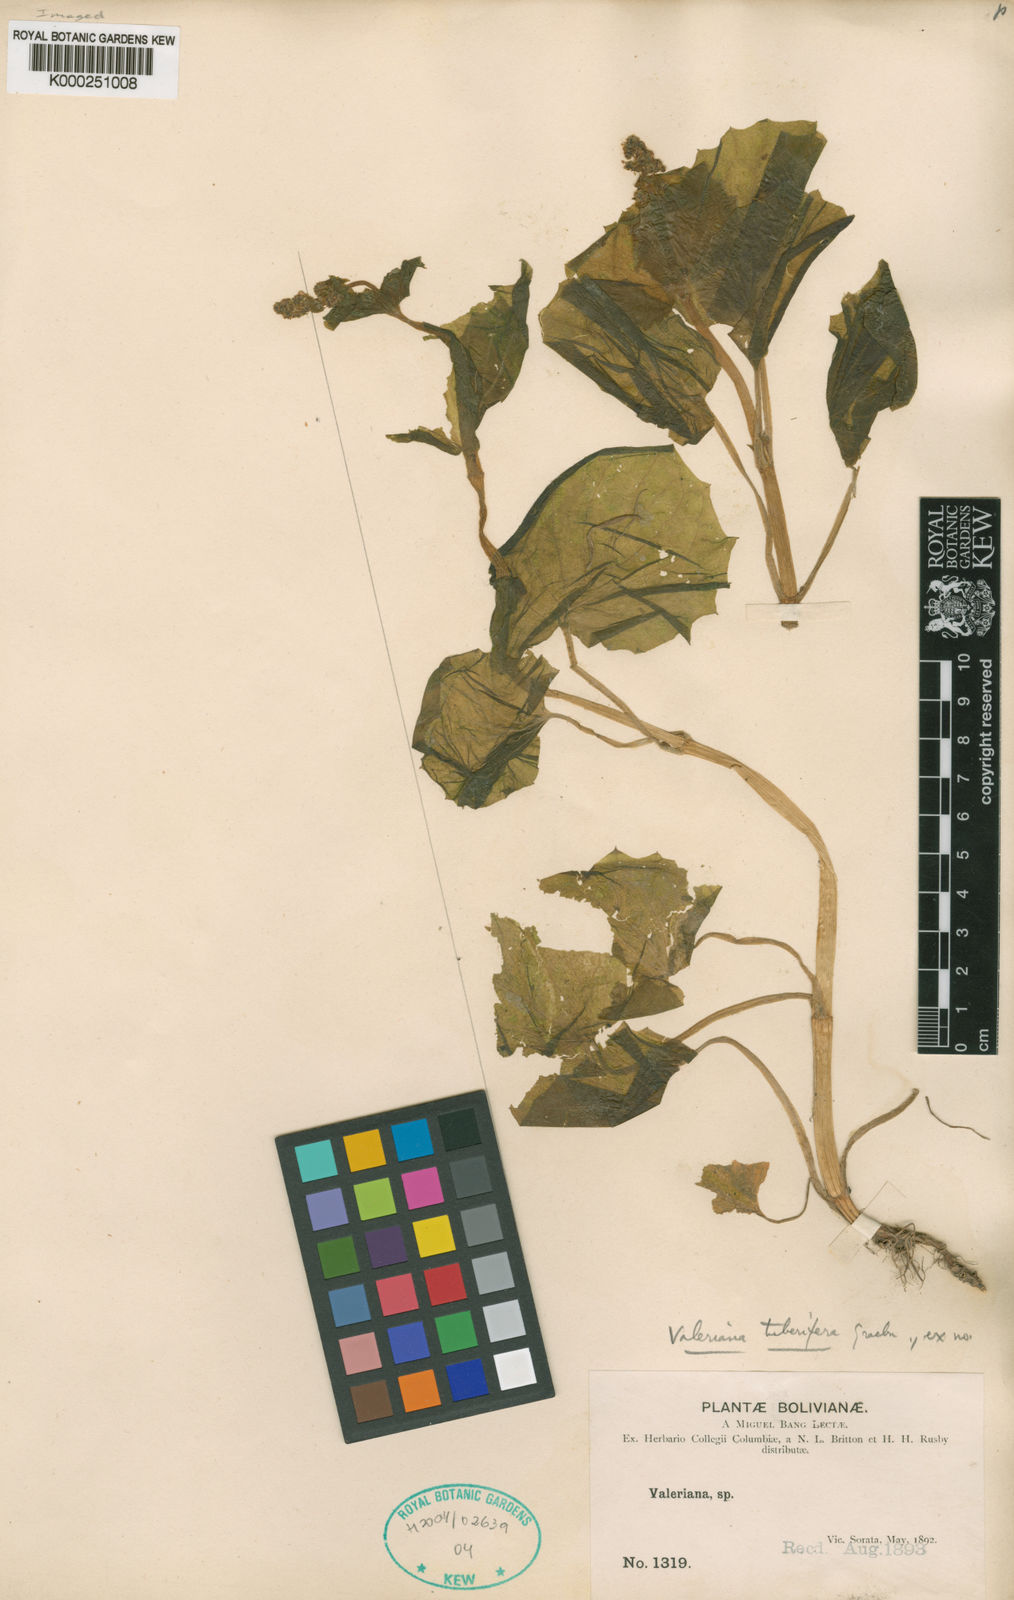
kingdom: Plantae
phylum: Tracheophyta
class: Magnoliopsida
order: Dipsacales
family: Caprifoliaceae
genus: Valeriana
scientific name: Valeriana tuberifera
